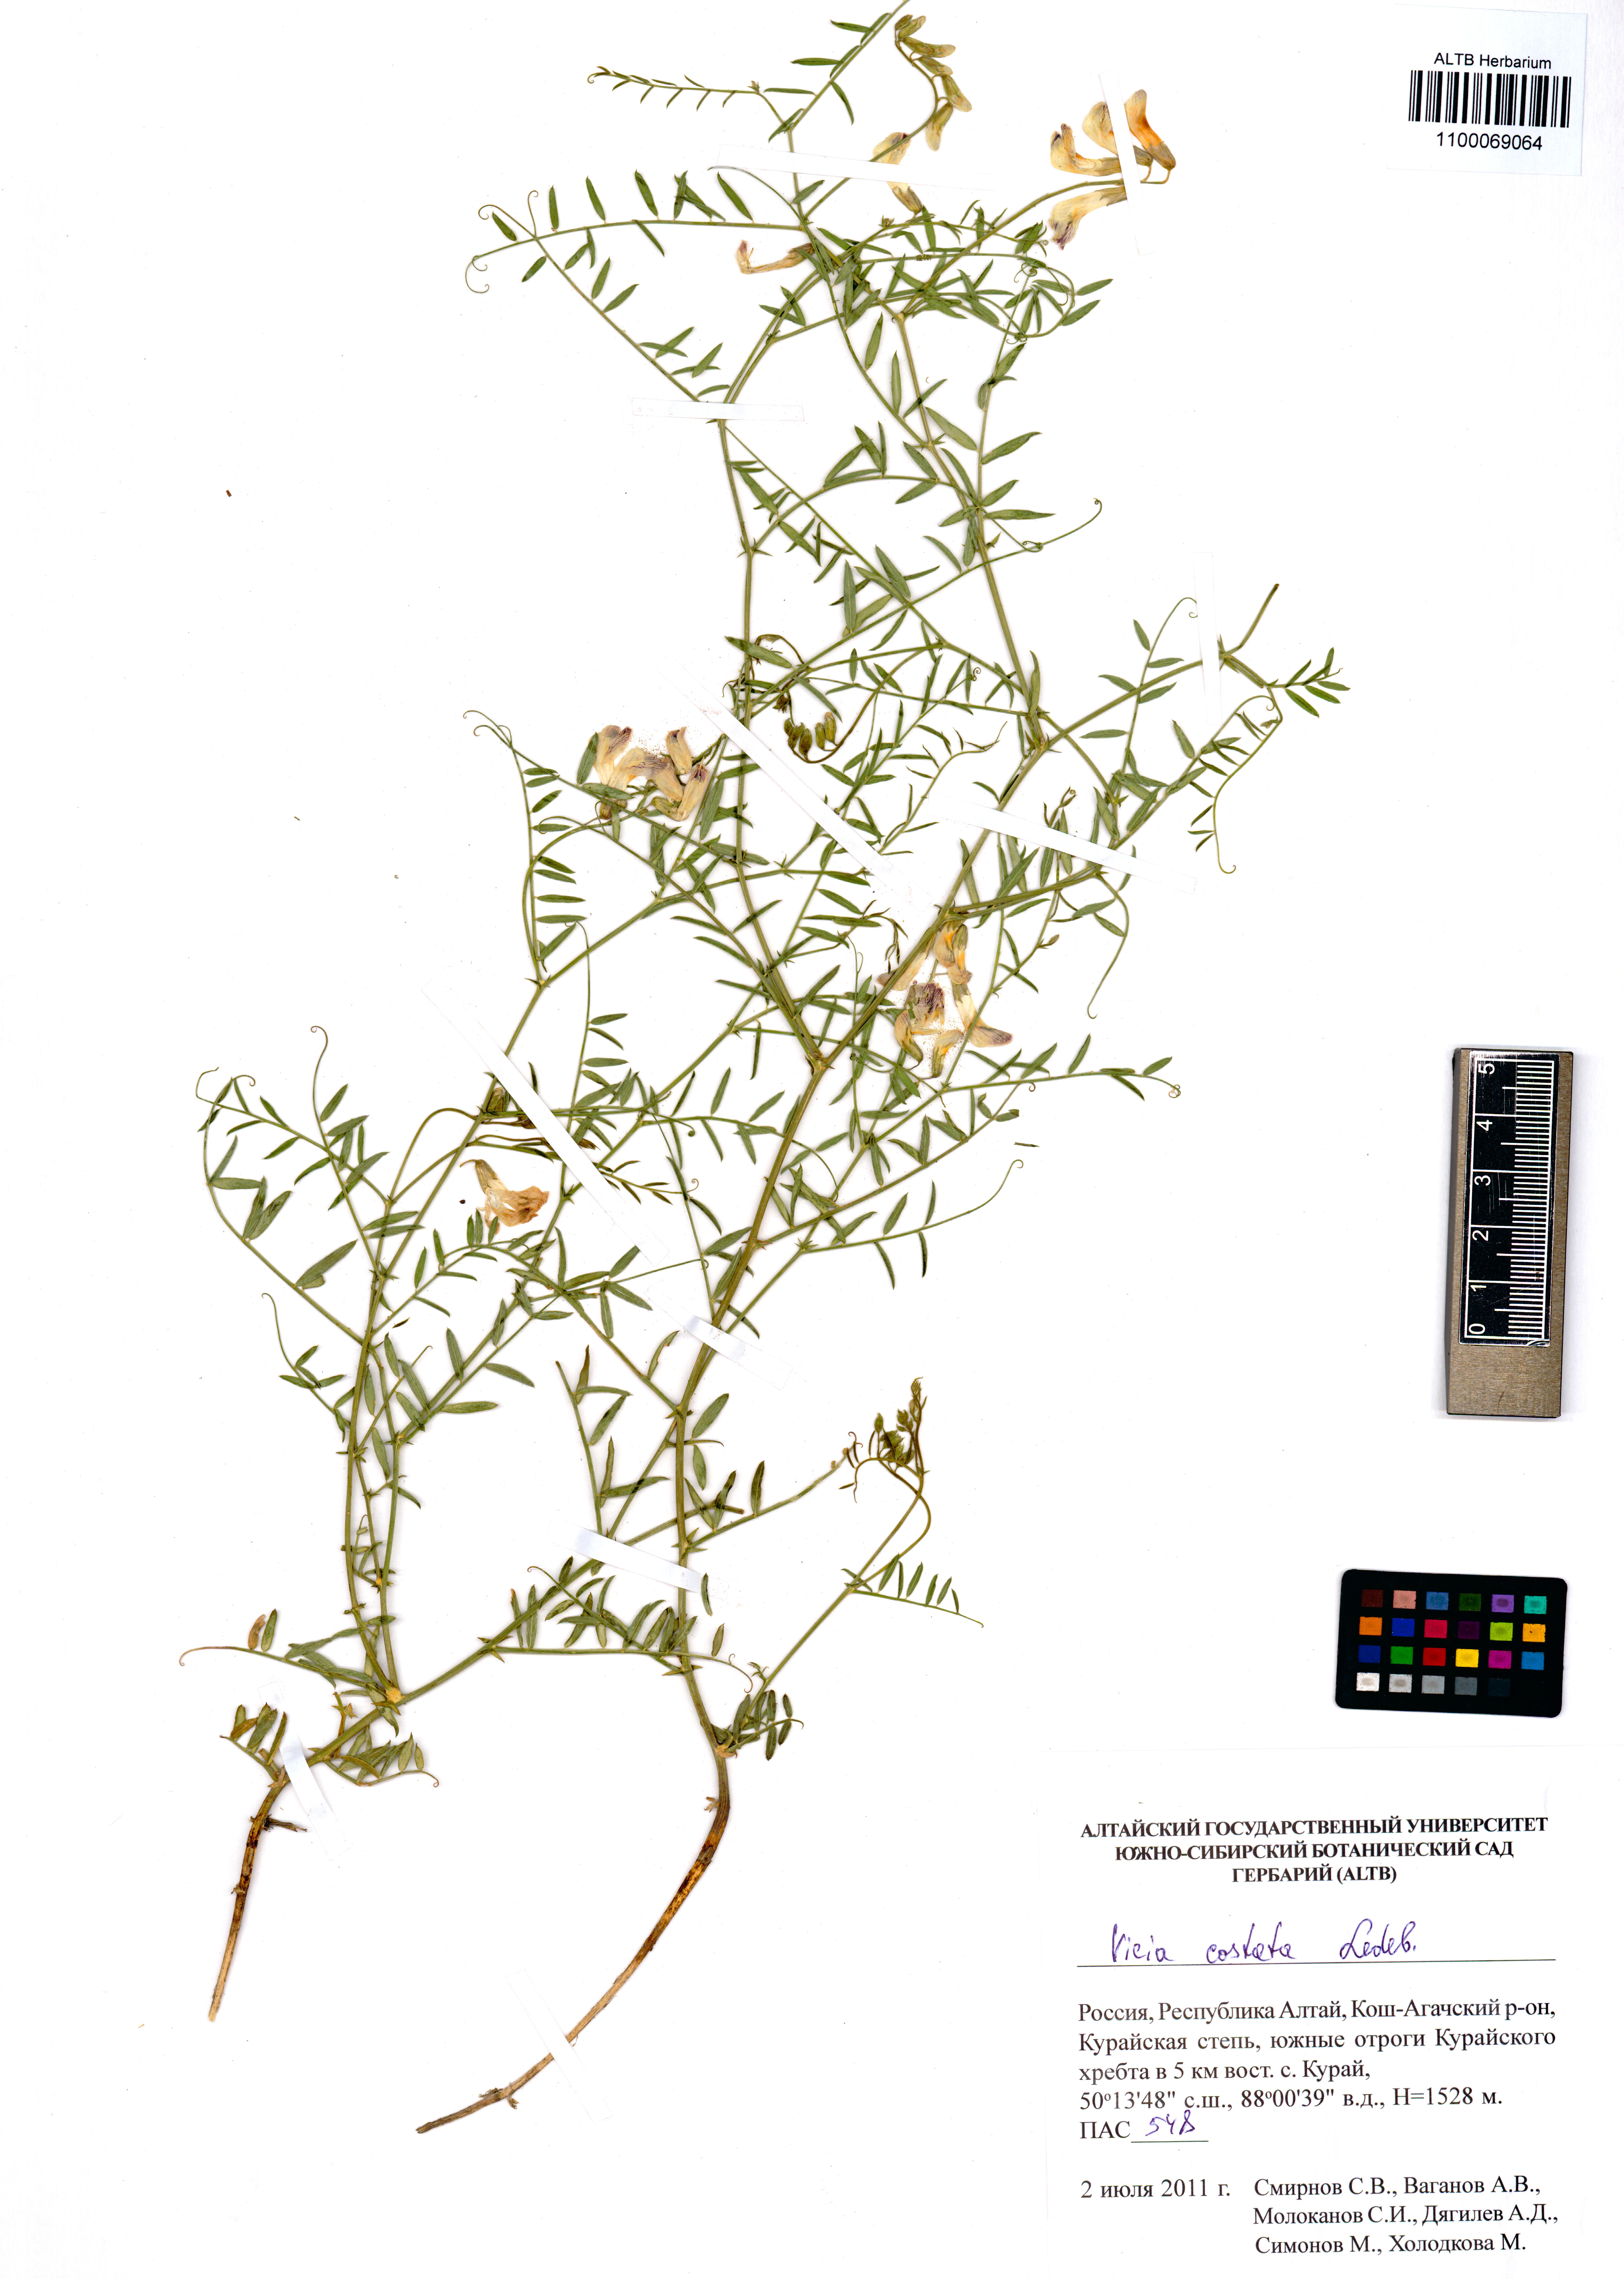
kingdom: Plantae
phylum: Tracheophyta
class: Magnoliopsida
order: Fabales
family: Fabaceae
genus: Vicia
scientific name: Vicia costata
